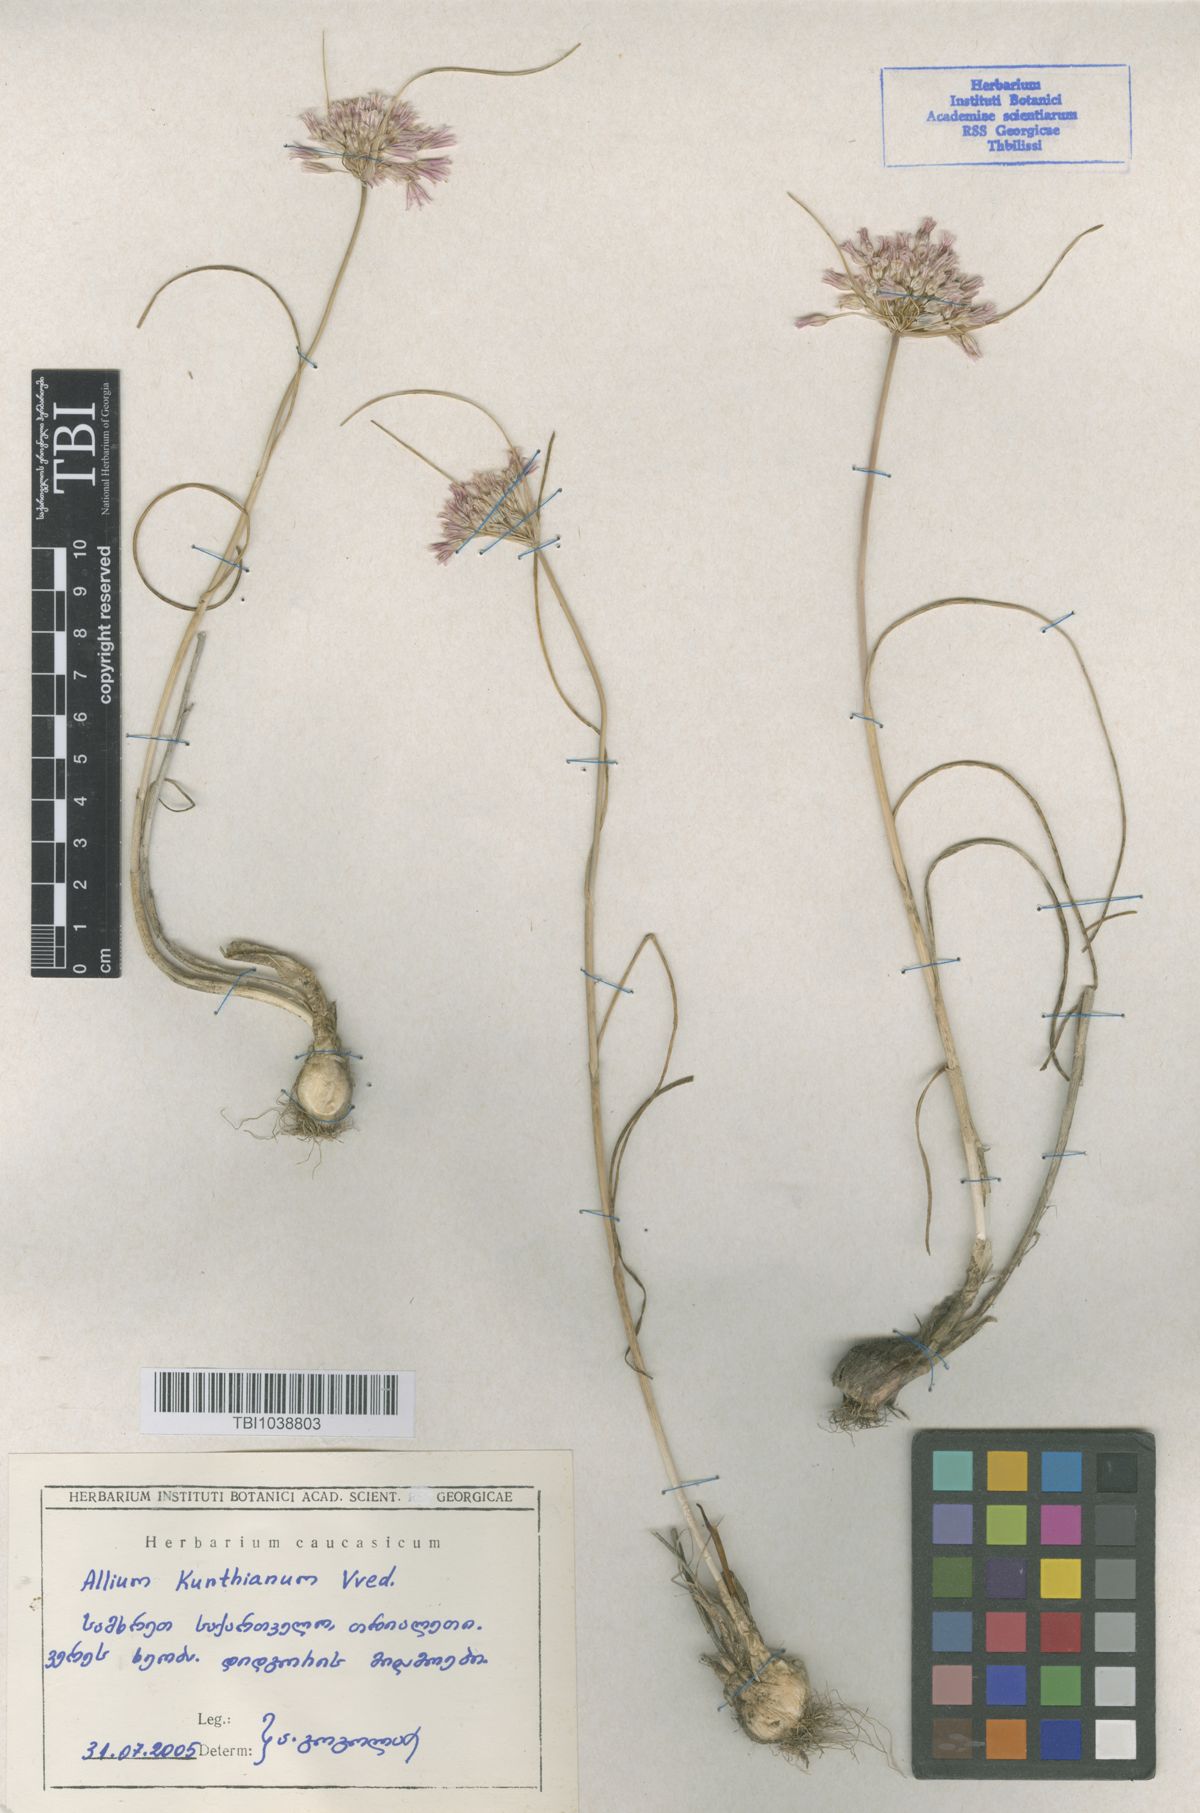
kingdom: Plantae
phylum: Tracheophyta
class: Liliopsida
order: Asparagales
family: Amaryllidaceae
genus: Allium
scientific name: Allium kunthianum
